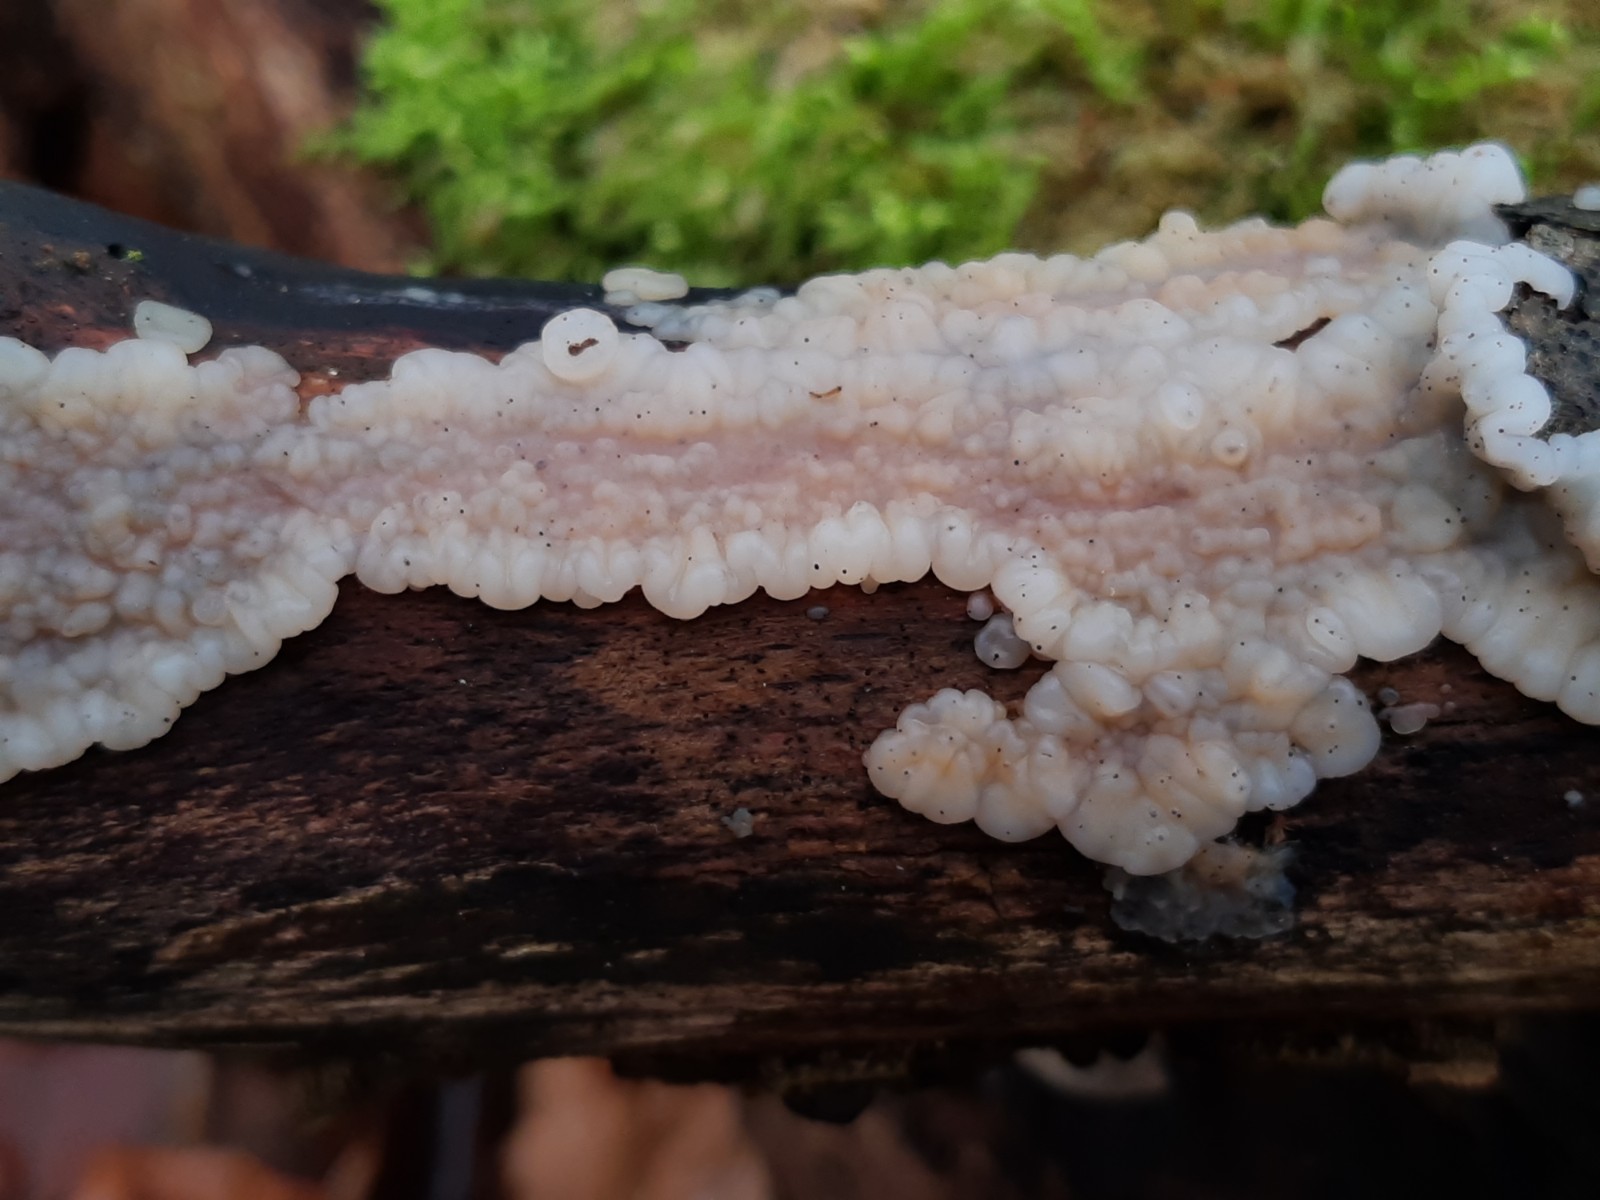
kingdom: Fungi
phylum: Basidiomycota
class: Agaricomycetes
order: Auriculariales
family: Auriculariaceae
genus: Exidia
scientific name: Exidia thuretiana
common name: hvidlig bævretop
